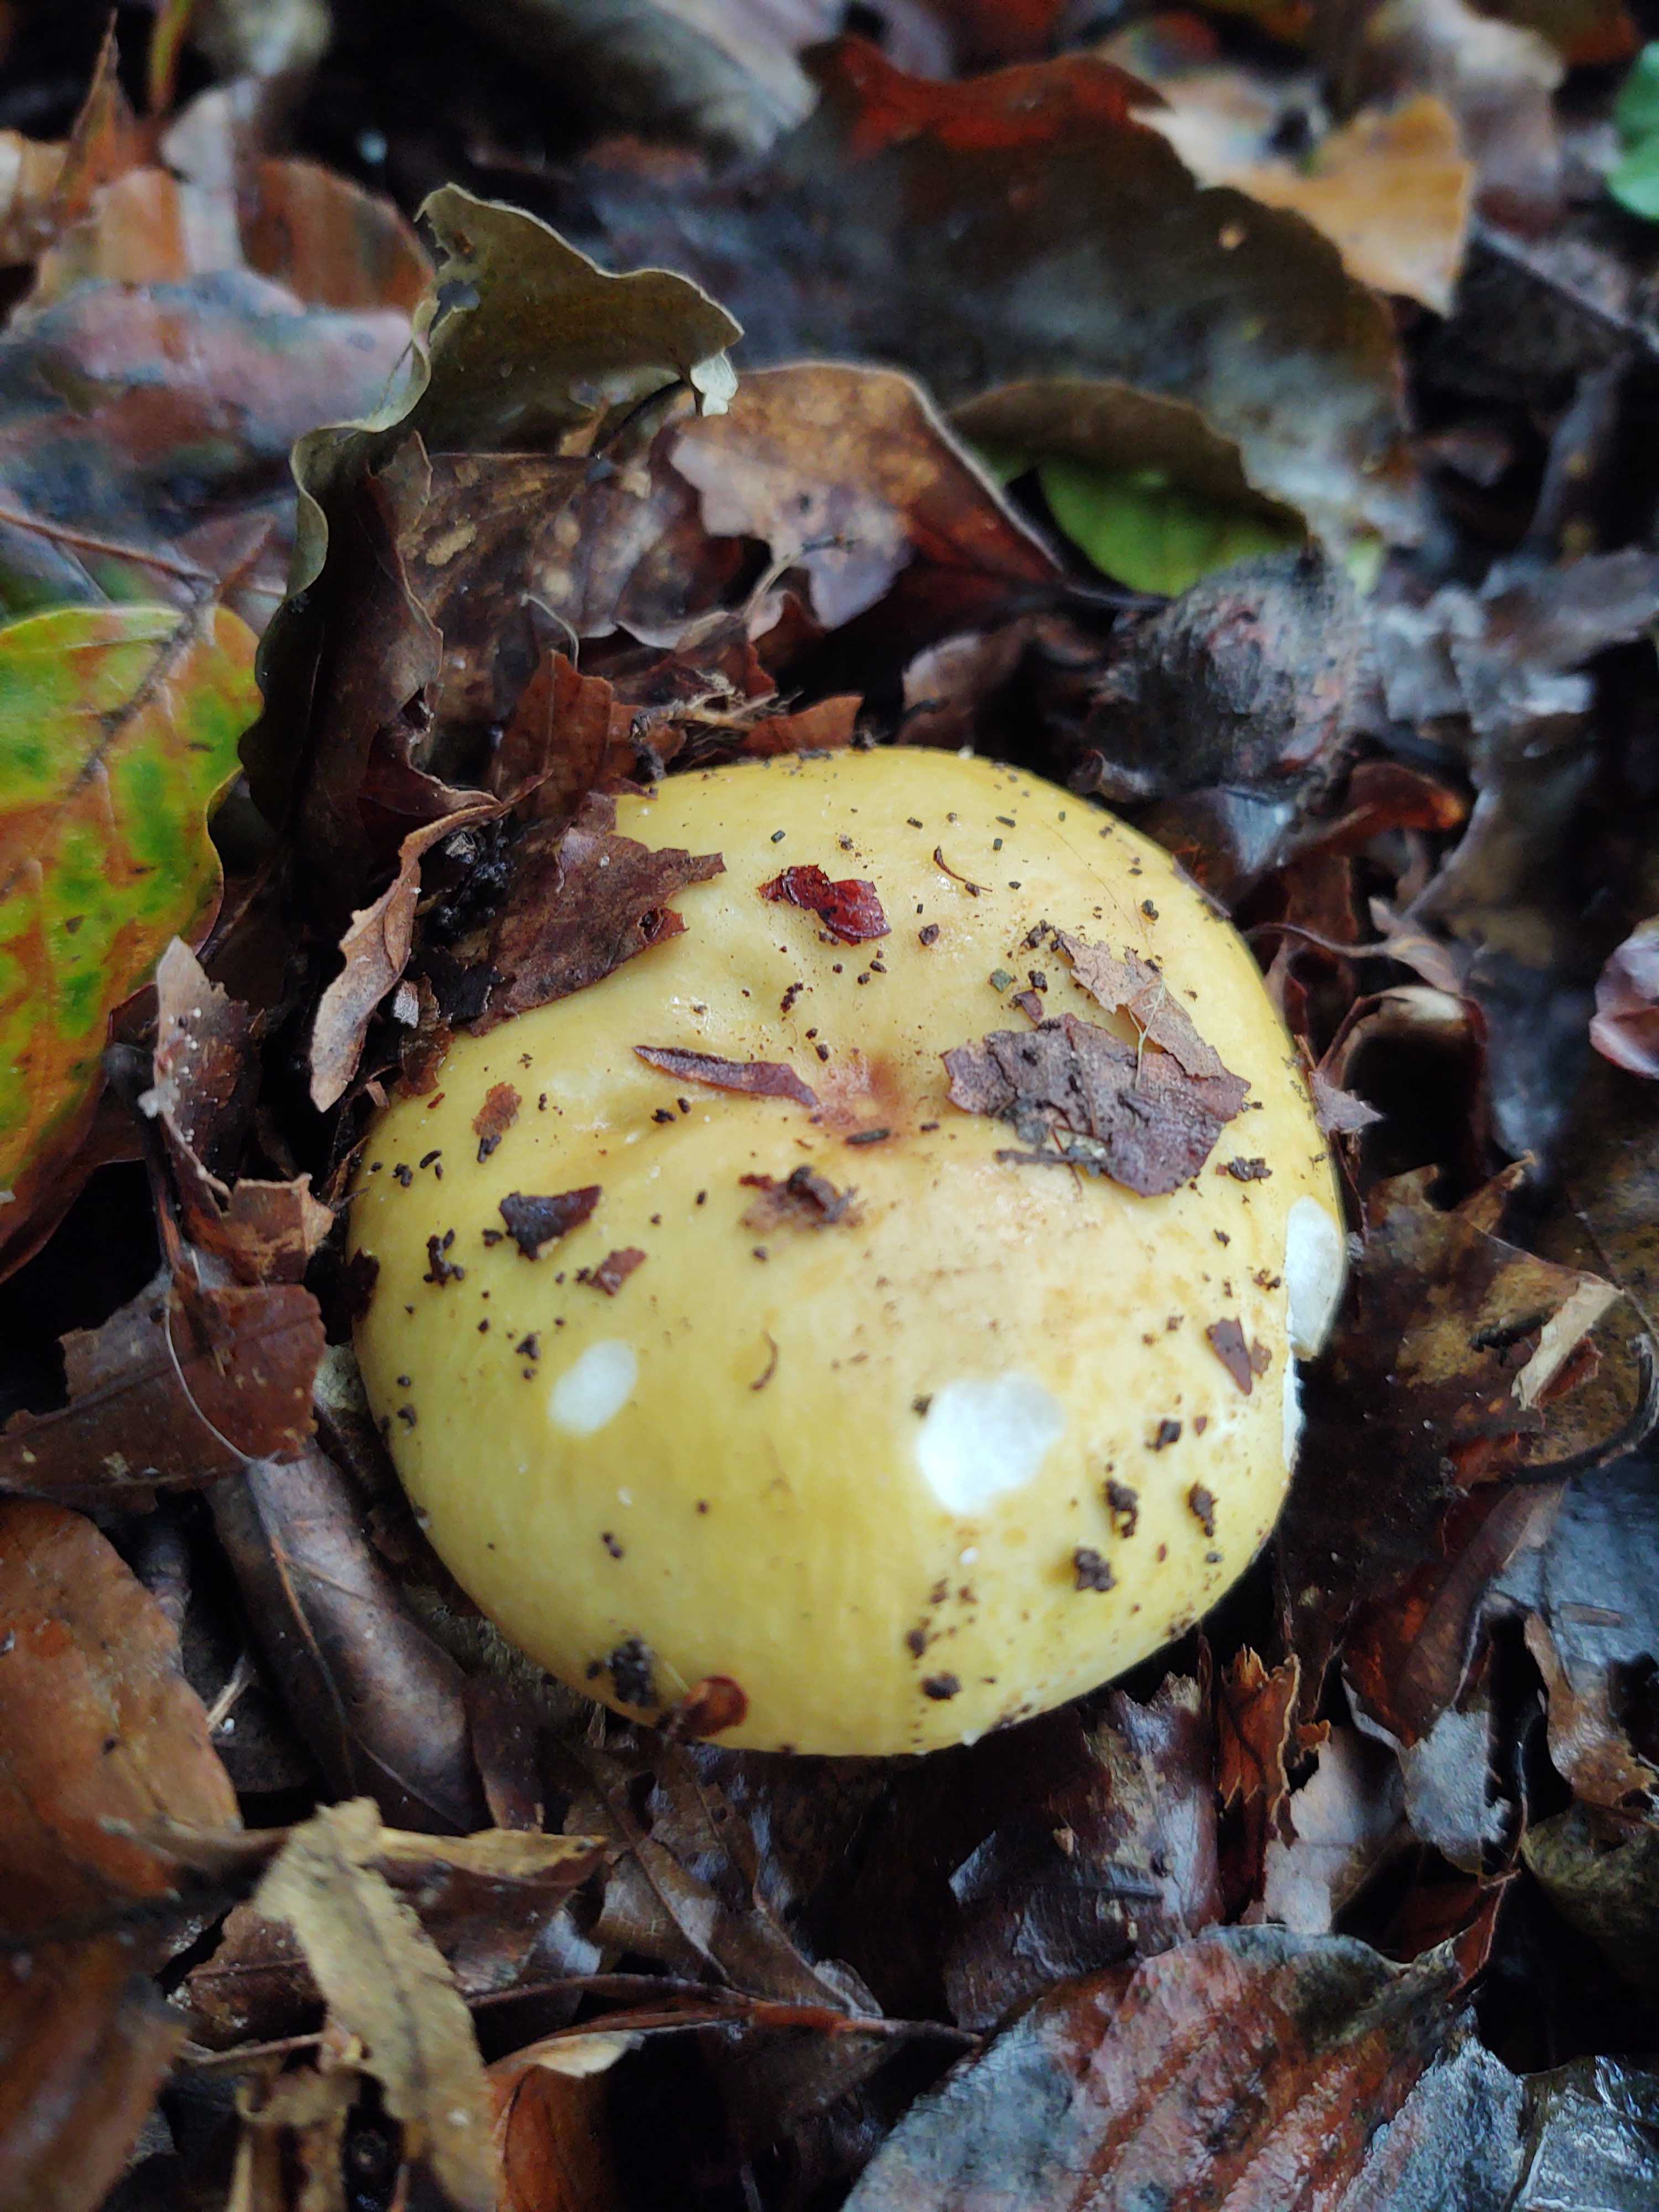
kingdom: Fungi
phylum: Basidiomycota
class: Agaricomycetes
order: Russulales
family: Russulaceae
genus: Russula
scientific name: Russula ochroleuca
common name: okkergul skørhat
